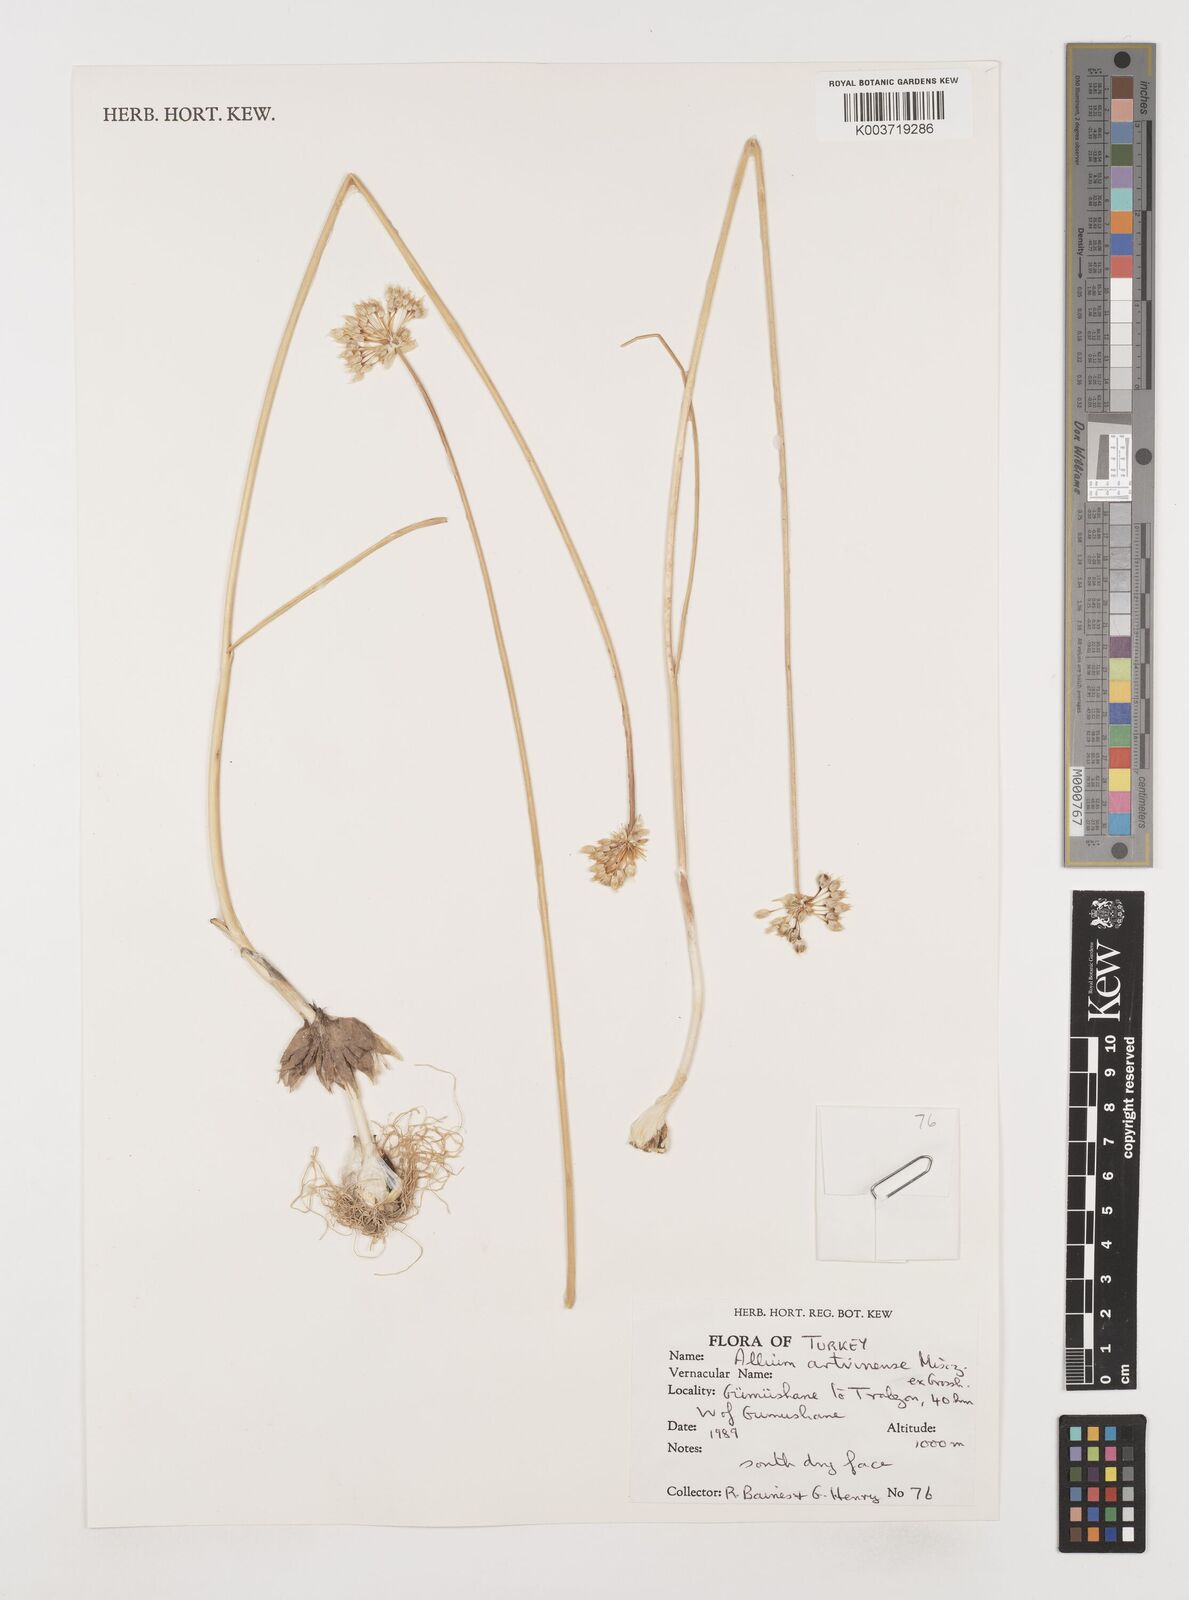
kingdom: Plantae
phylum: Tracheophyta
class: Liliopsida
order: Asparagales
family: Amaryllidaceae
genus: Allium
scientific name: Allium affine
